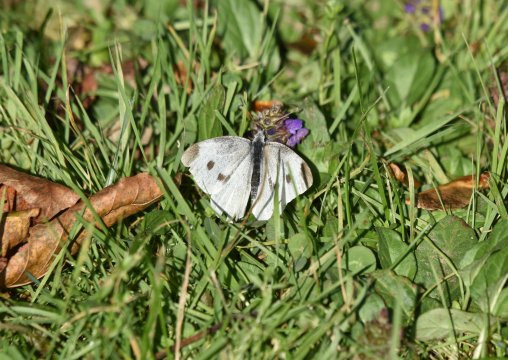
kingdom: Animalia
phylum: Arthropoda
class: Insecta
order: Lepidoptera
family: Pieridae
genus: Pieris
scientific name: Pieris rapae
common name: Cabbage White
